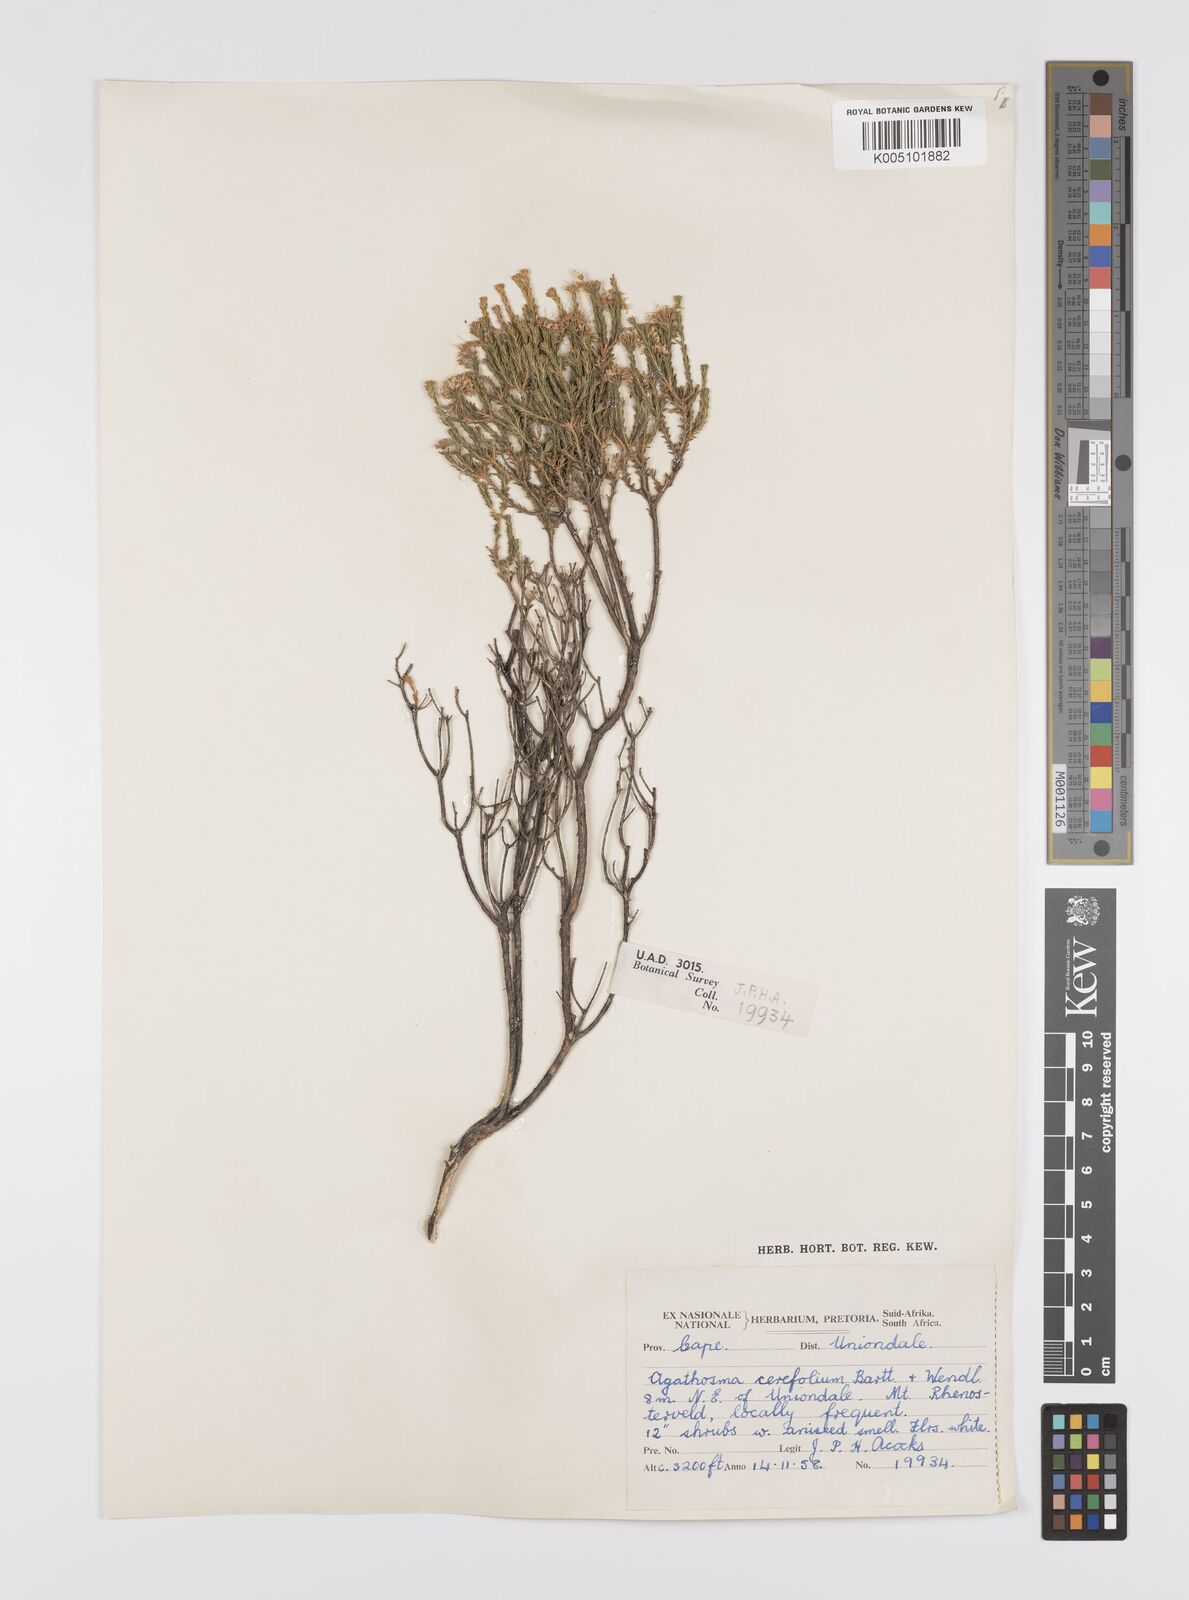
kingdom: Plantae
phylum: Tracheophyta
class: Magnoliopsida
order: Sapindales
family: Rutaceae
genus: Agathosma
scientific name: Agathosma cerefolia
